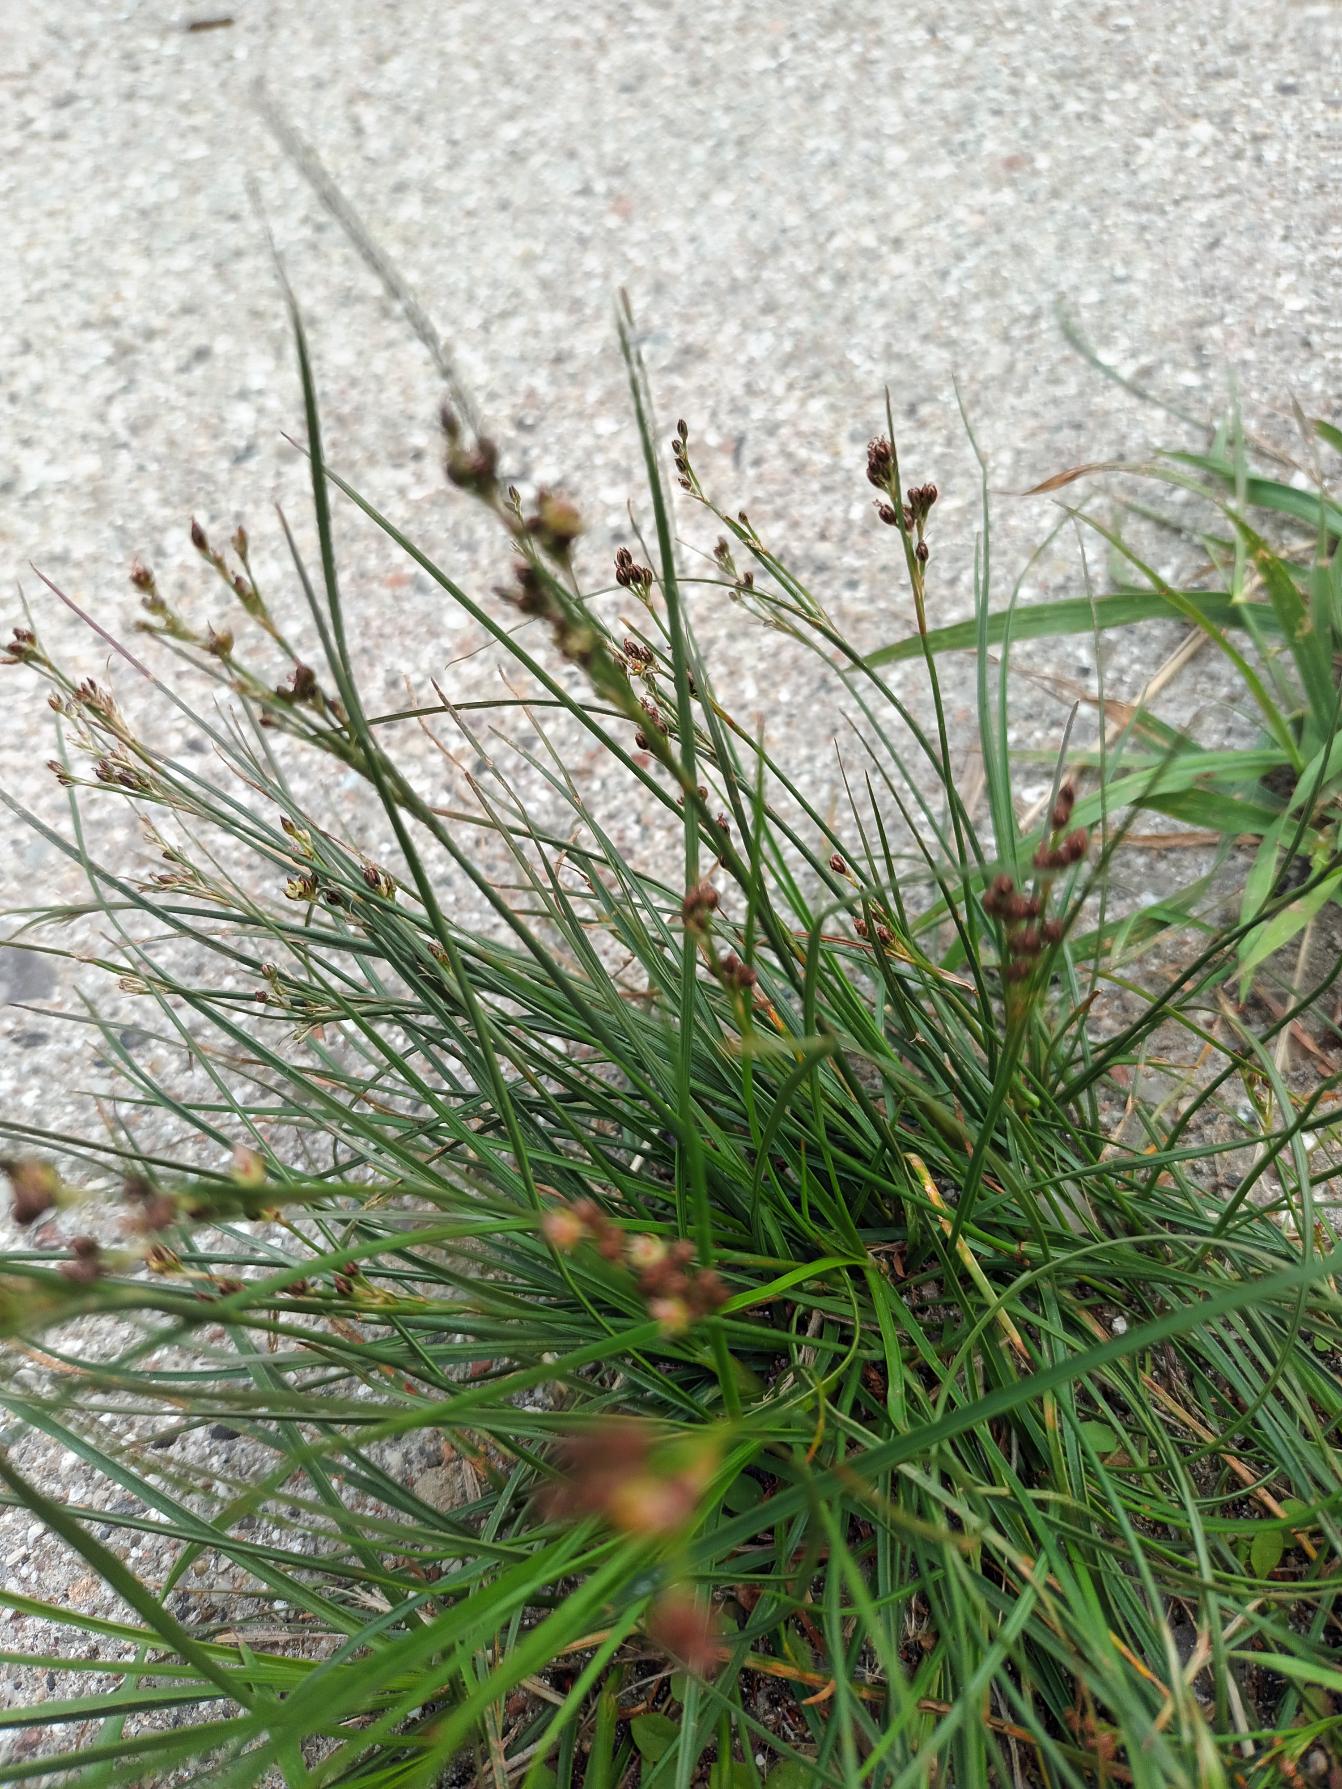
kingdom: Plantae
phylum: Tracheophyta
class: Liliopsida
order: Poales
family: Juncaceae
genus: Juncus
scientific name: Juncus compressus
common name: Fladstrået siv
